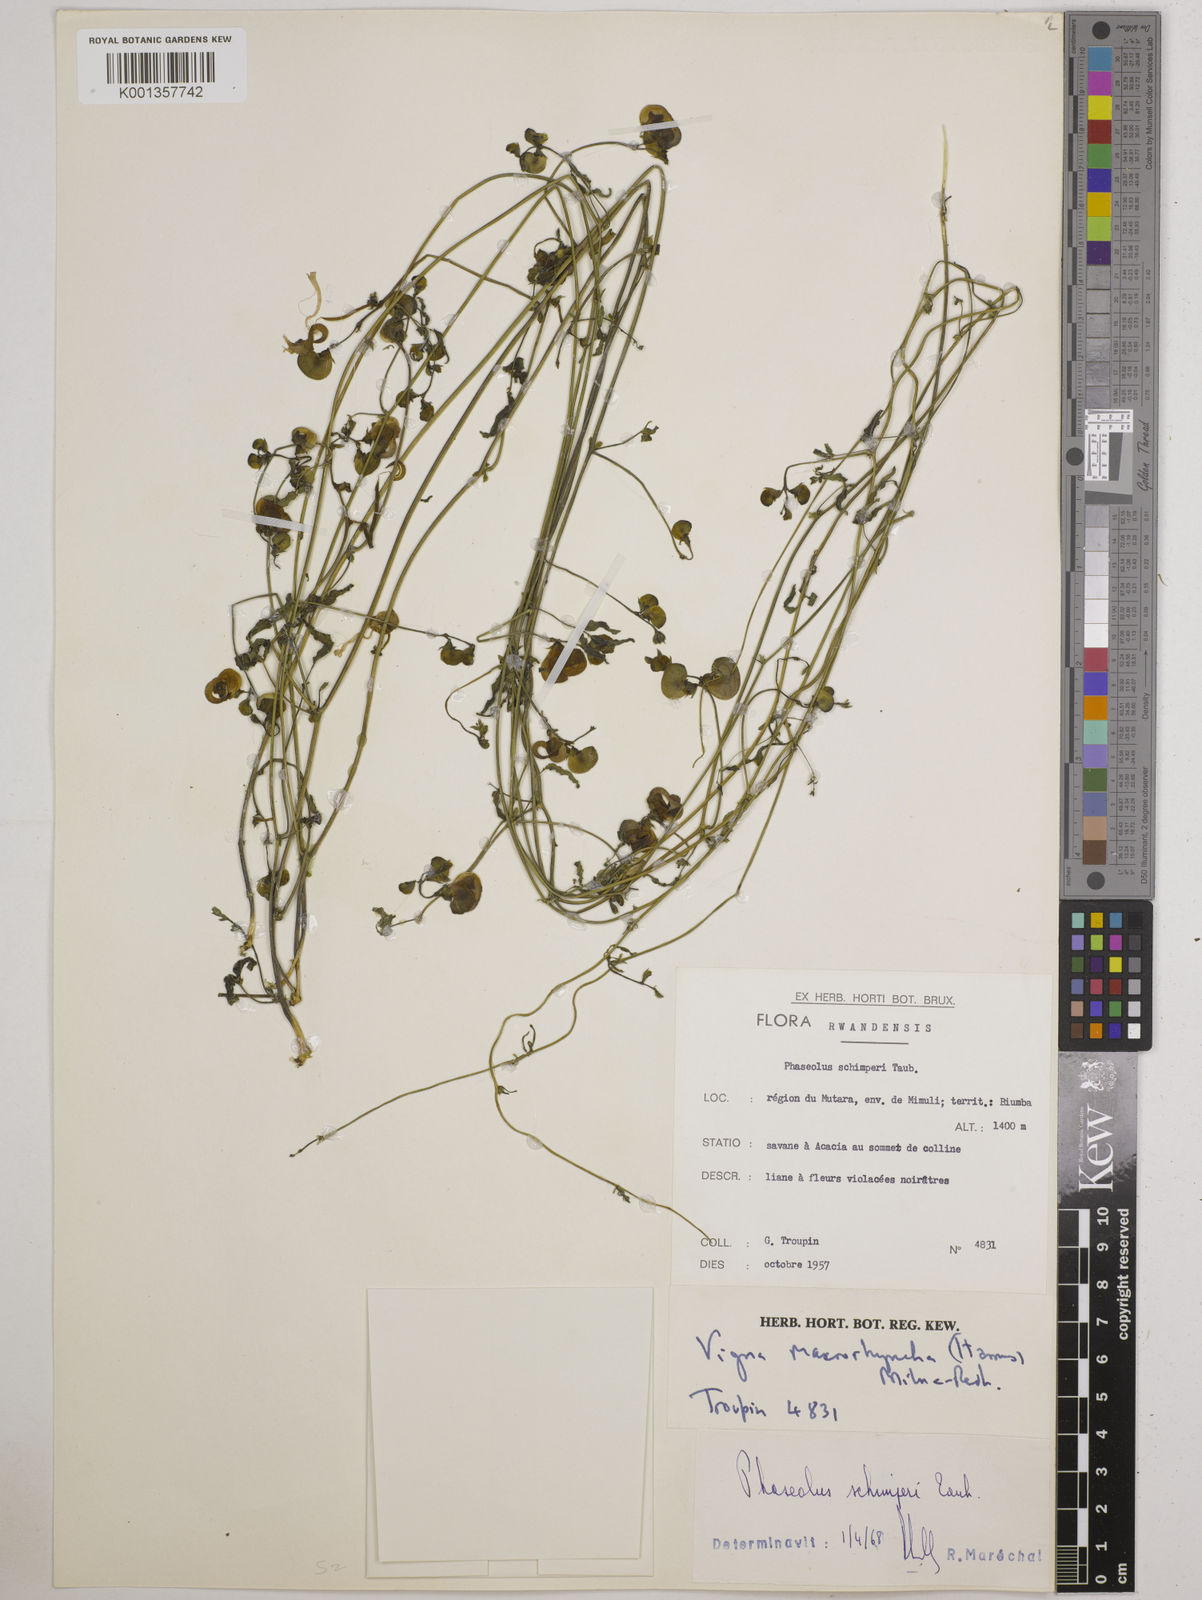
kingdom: Plantae
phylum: Tracheophyta
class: Magnoliopsida
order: Fabales
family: Fabaceae
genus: Wajira
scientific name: Wajira grahamiana
